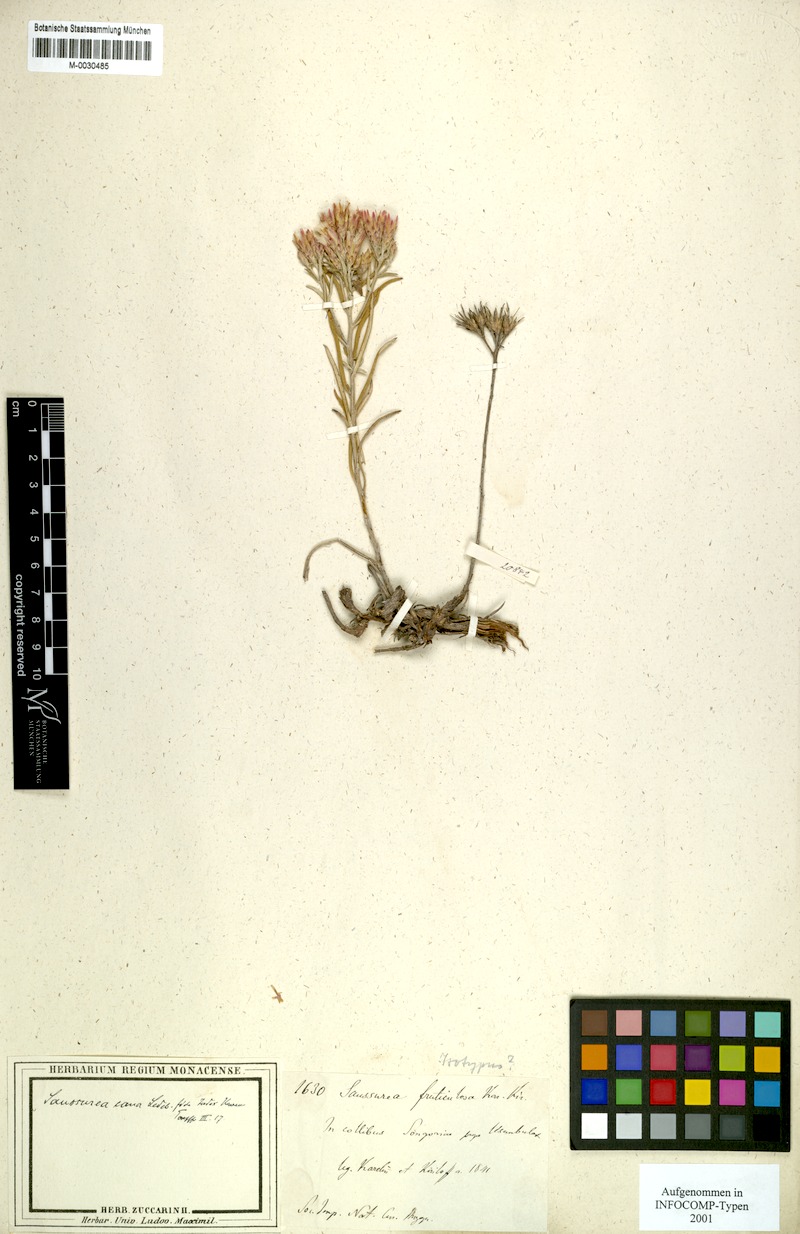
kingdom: Plantae
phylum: Tracheophyta
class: Magnoliopsida
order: Asterales
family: Asteraceae
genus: Saussurea
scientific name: Saussurea cana
